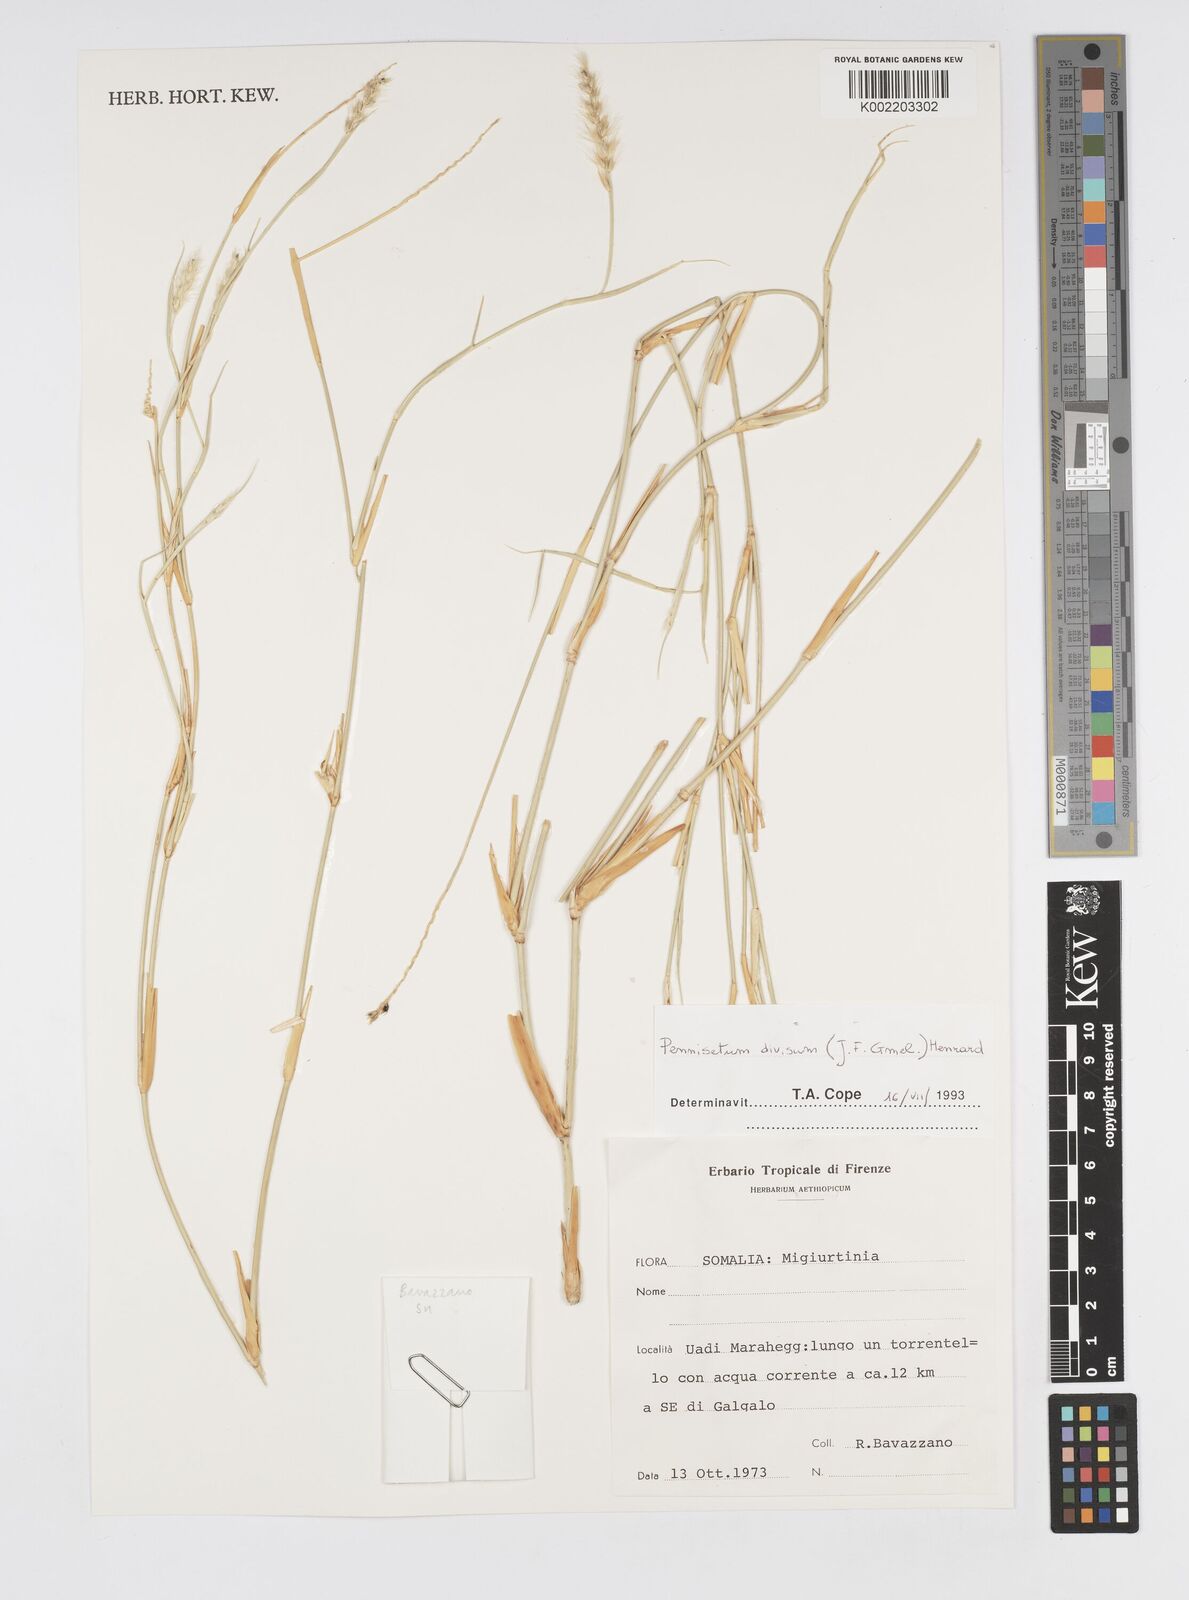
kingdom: Plantae
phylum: Tracheophyta
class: Liliopsida
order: Poales
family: Poaceae
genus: Cenchrus
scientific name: Cenchrus divisus
